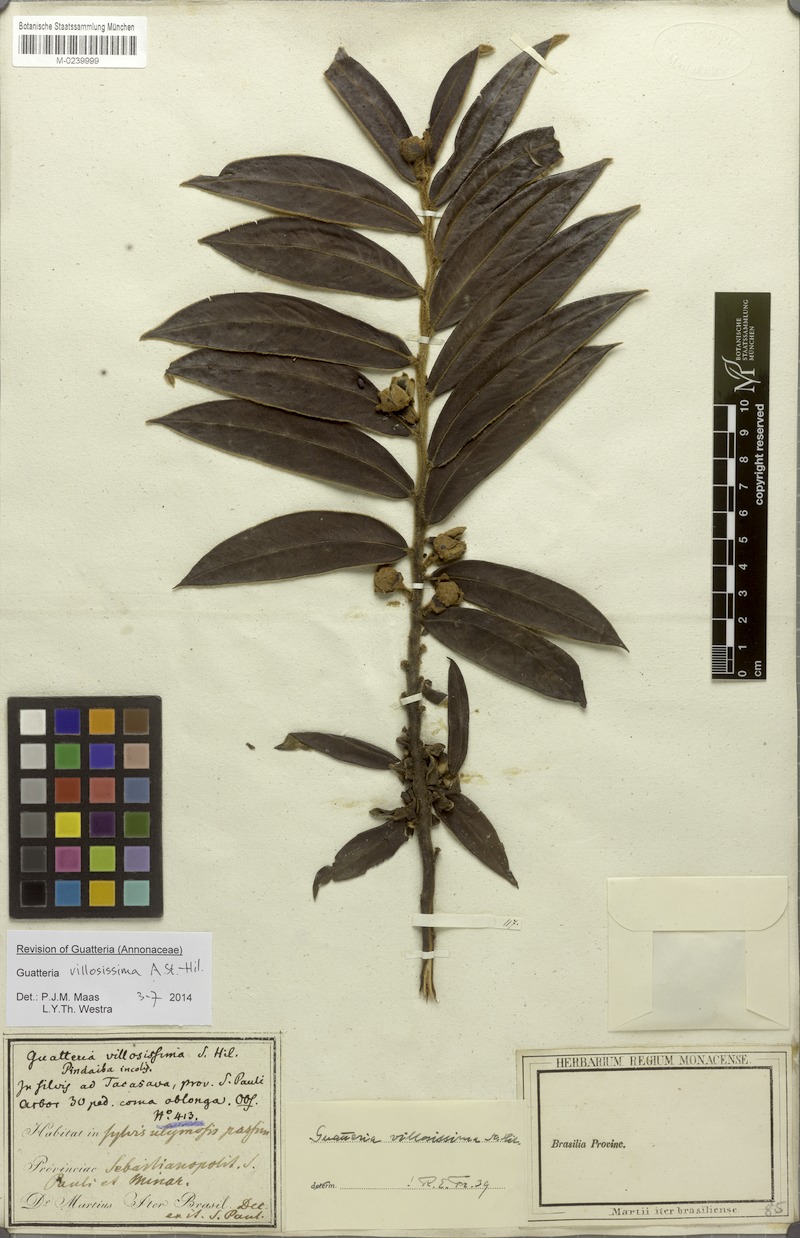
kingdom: Plantae
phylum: Tracheophyta
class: Magnoliopsida
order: Magnoliales
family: Annonaceae
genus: Guatteria
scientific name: Guatteria villosissima
